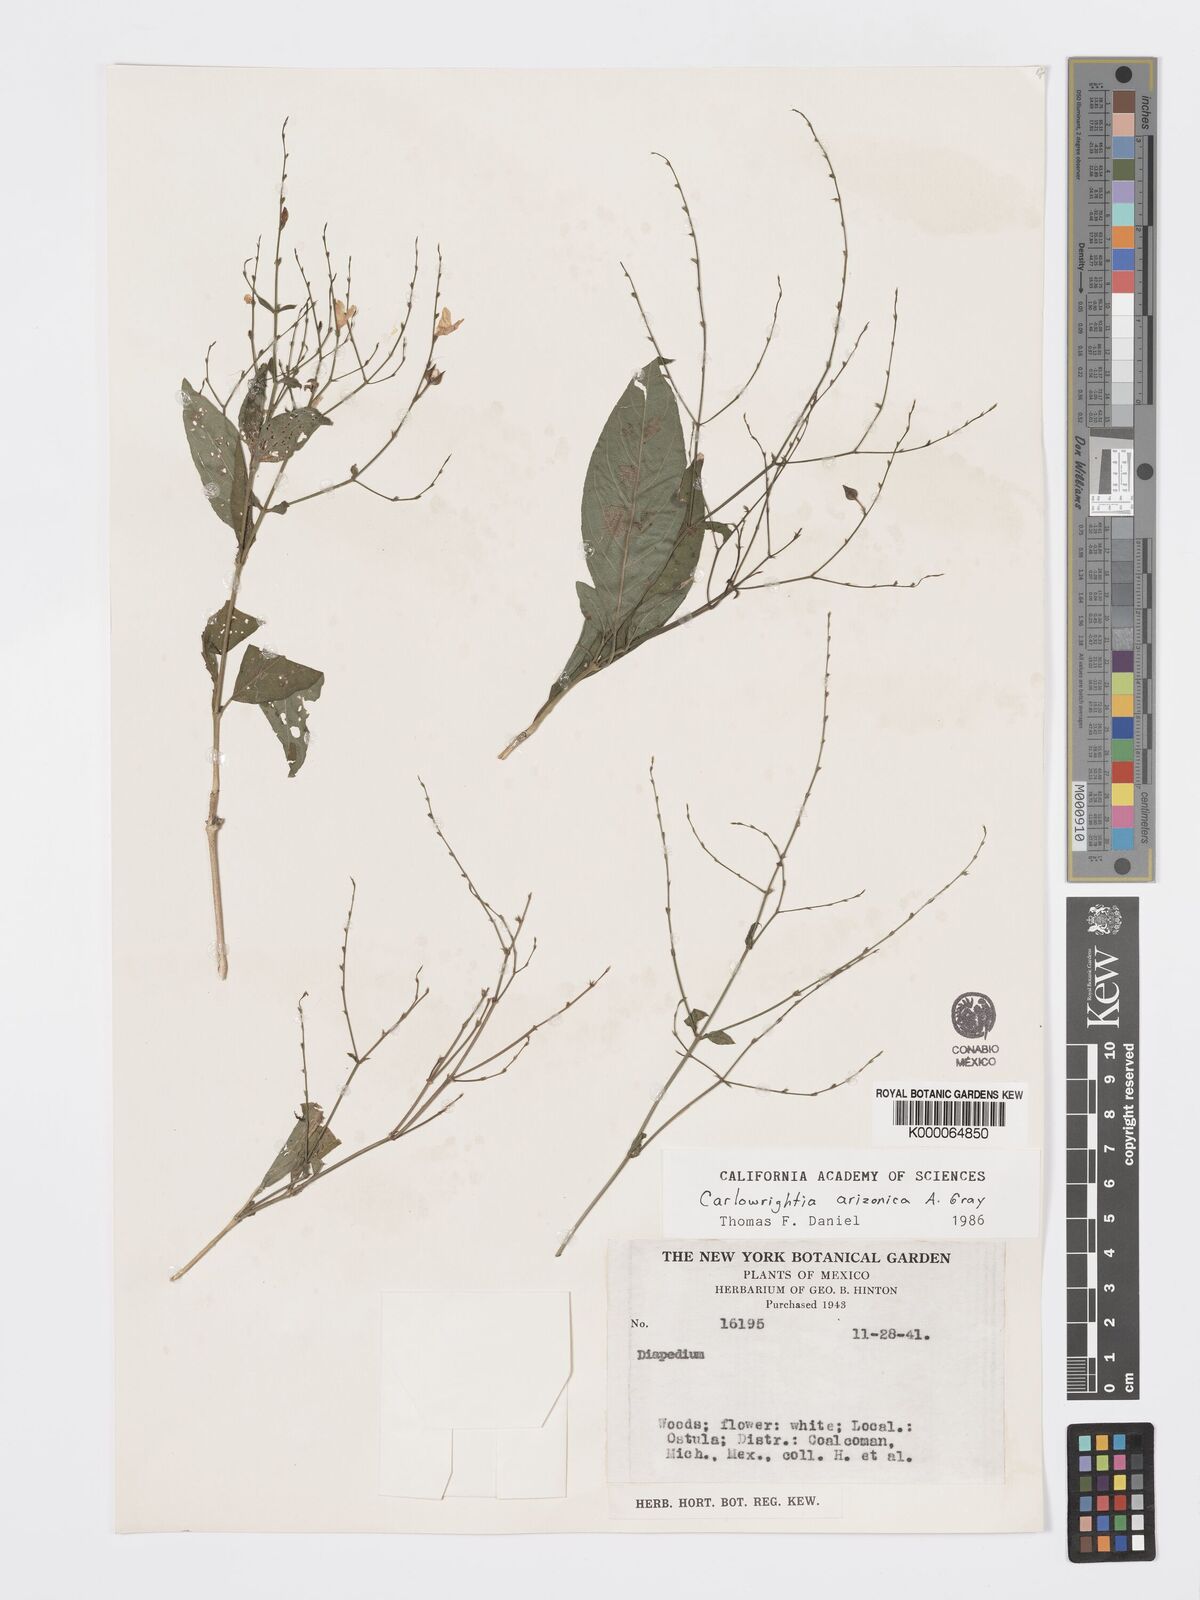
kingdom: Plantae
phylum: Tracheophyta
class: Magnoliopsida
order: Lamiales
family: Acanthaceae
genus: Carlowrightia
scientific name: Carlowrightia arizonica
